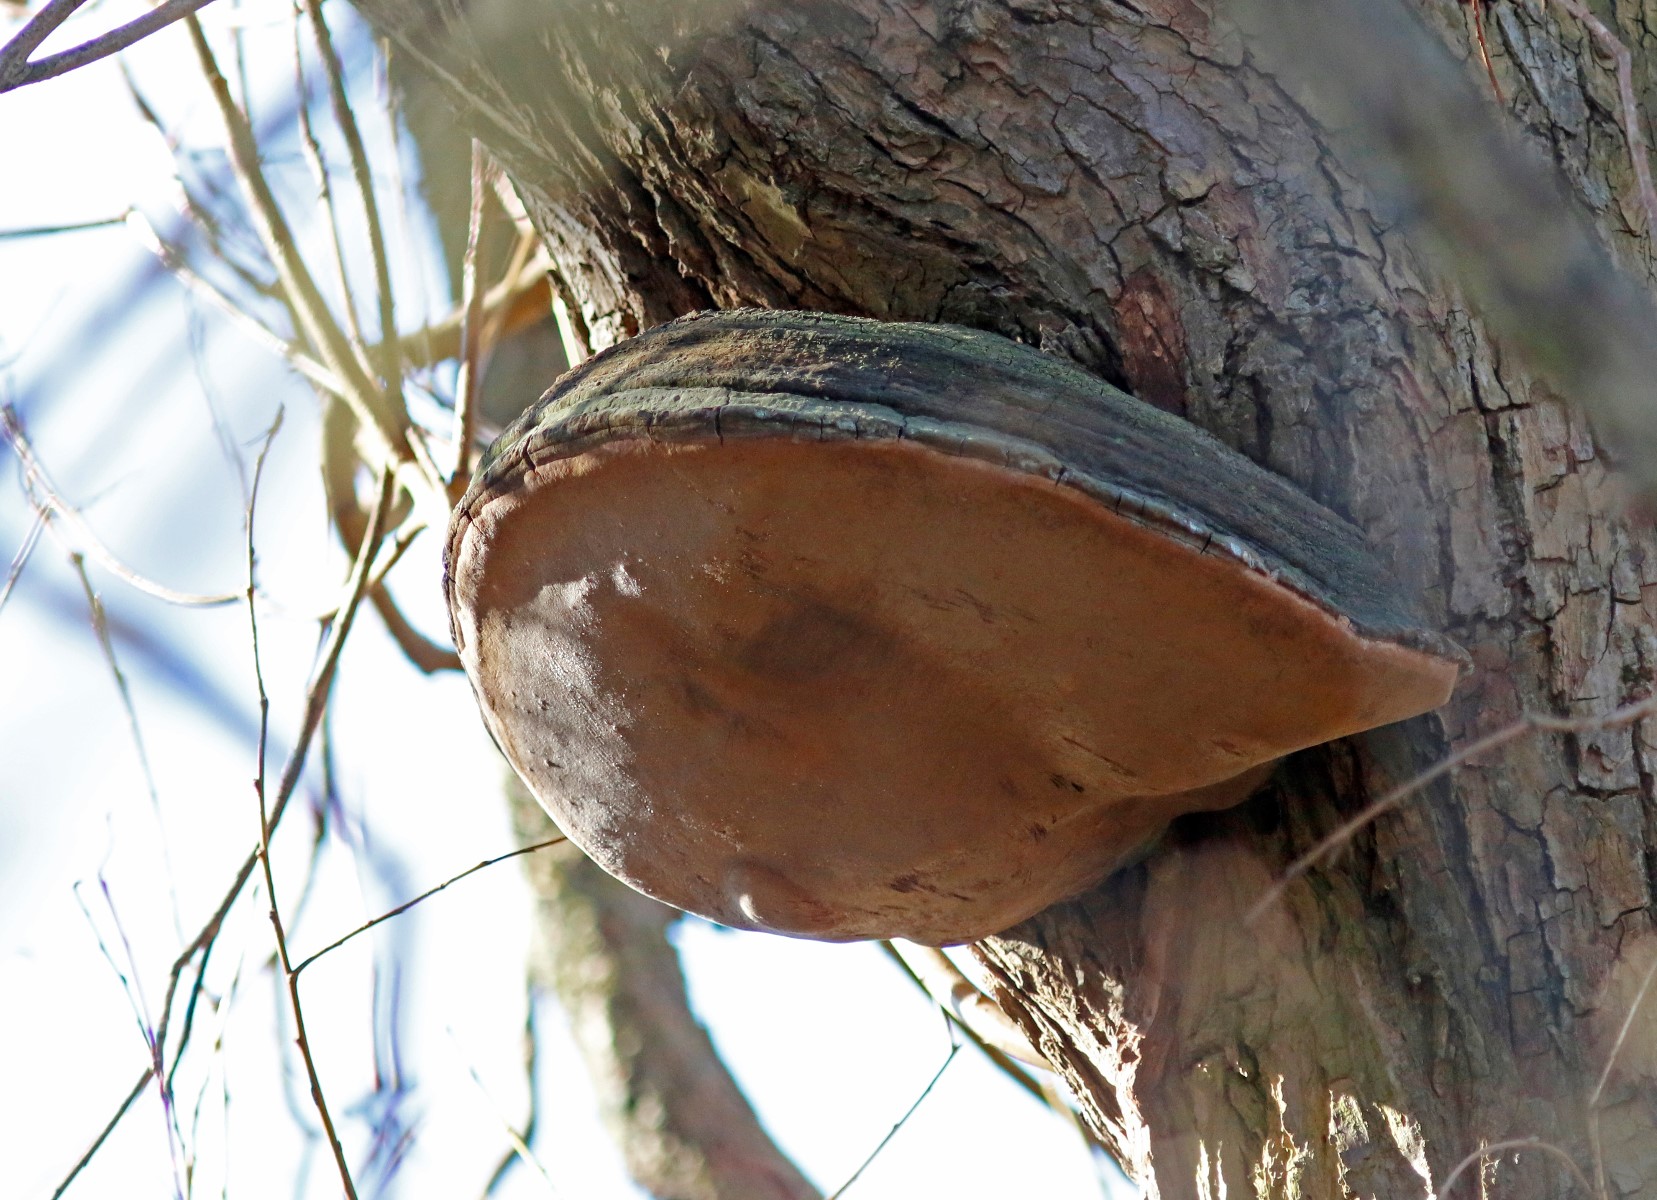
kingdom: Fungi
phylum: Basidiomycota
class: Agaricomycetes
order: Hymenochaetales
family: Hymenochaetaceae
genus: Phellinus
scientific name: Phellinus igniarius
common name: almindelig ildporesvamp
